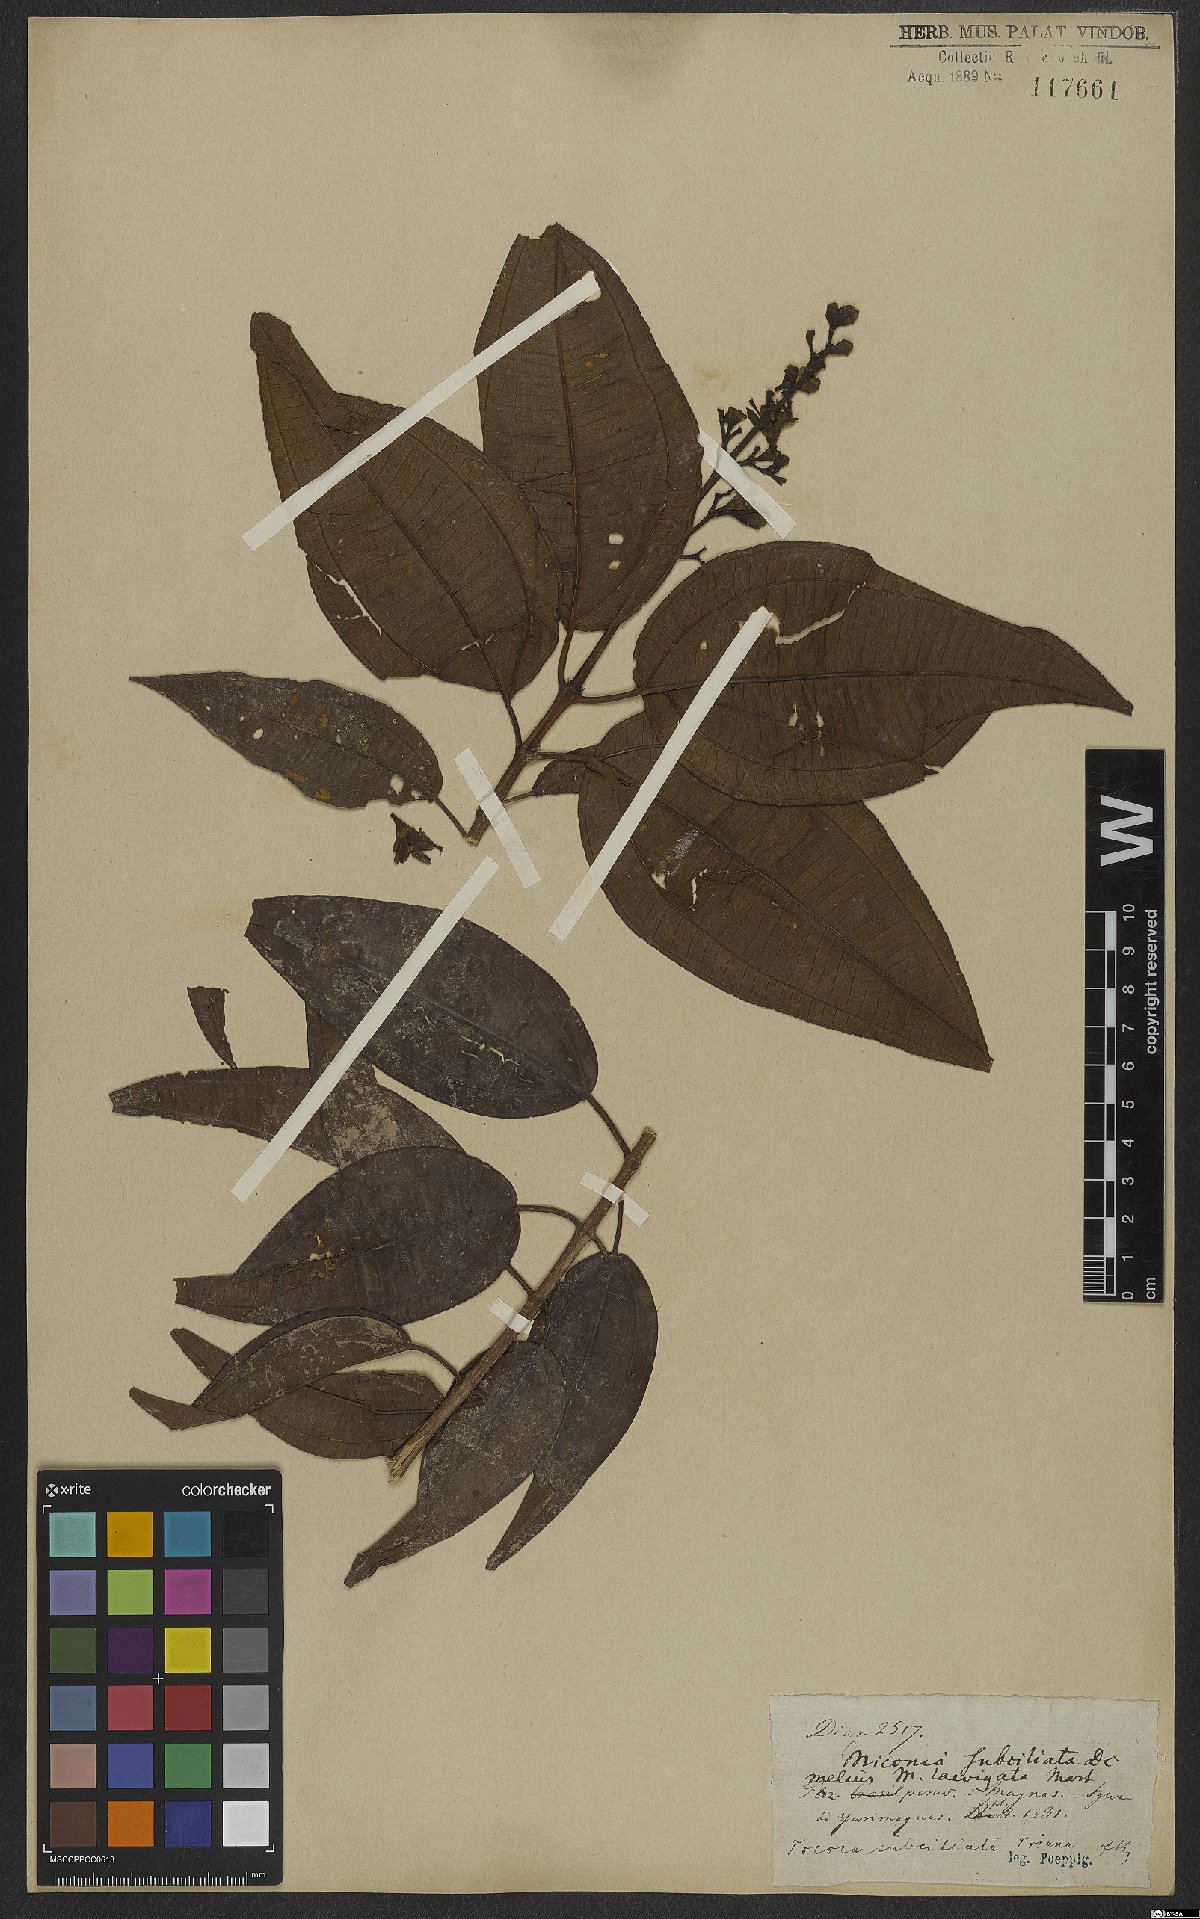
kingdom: Plantae
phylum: Tracheophyta
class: Magnoliopsida
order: Myrtales
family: Melastomataceae
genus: Miconia
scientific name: Miconia subciliata
